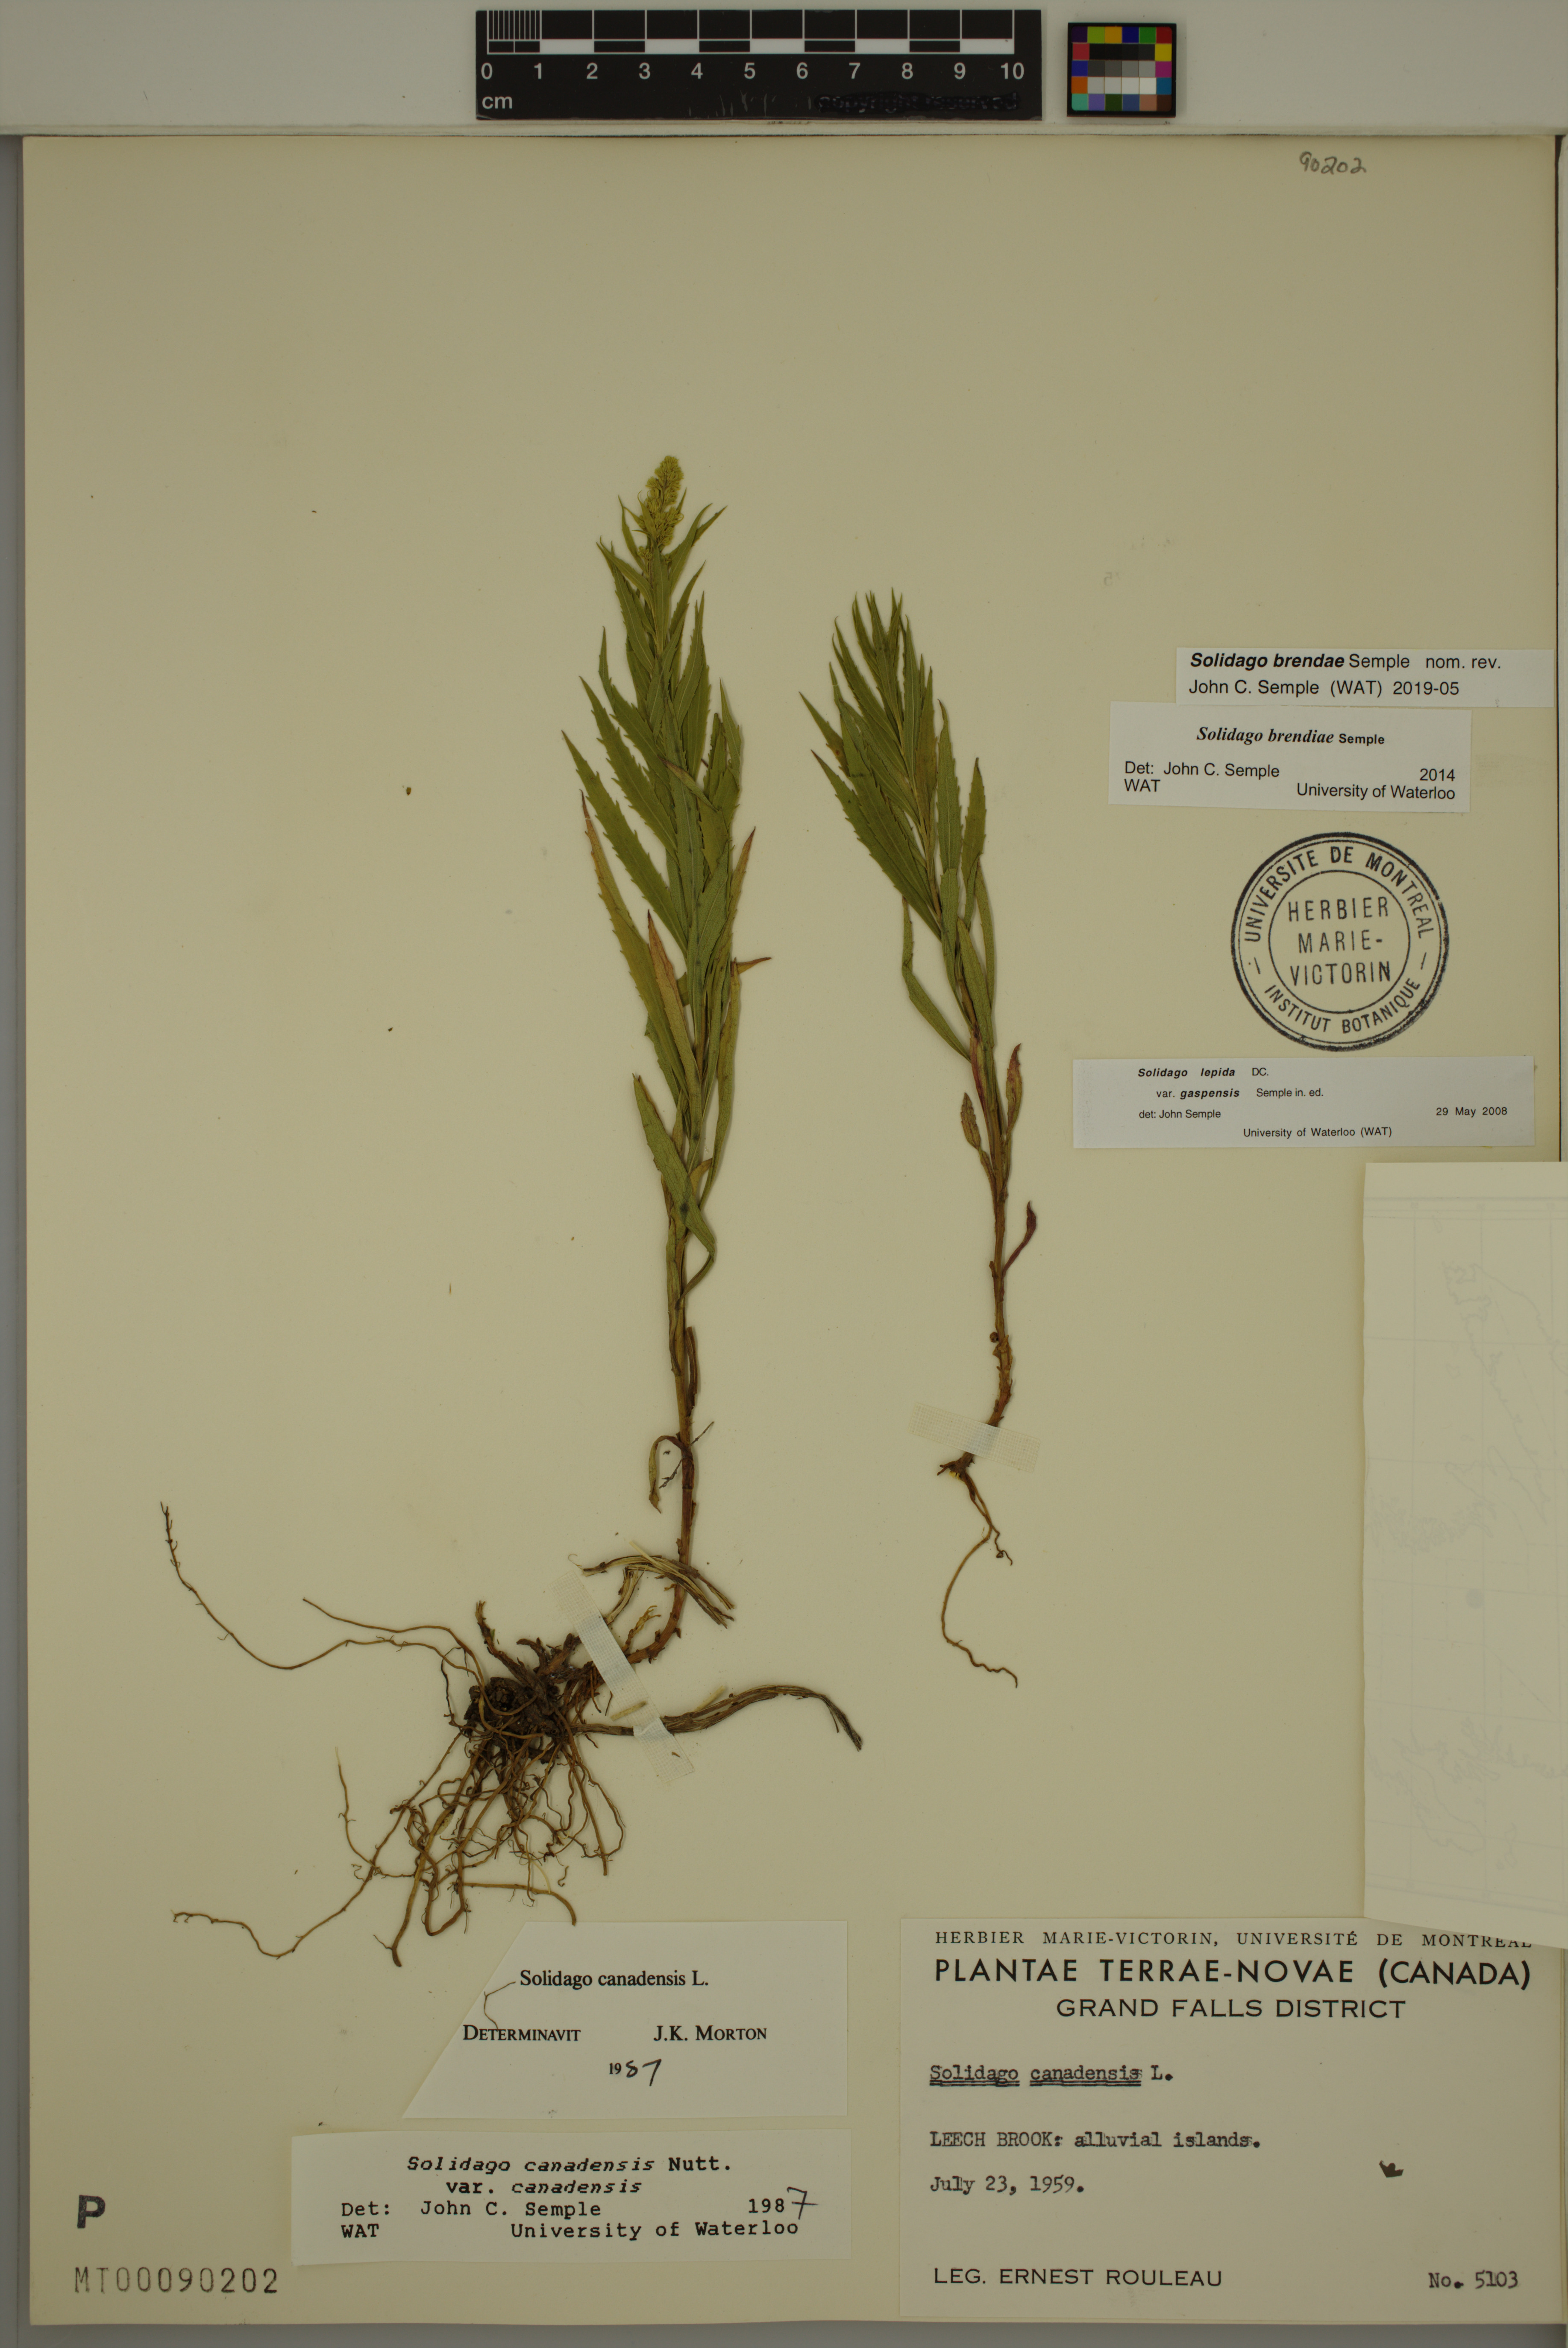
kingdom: Plantae
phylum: Tracheophyta
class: Magnoliopsida
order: Asterales
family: Asteraceae
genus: Solidago
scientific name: Solidago brendae
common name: Brenda's goldenrod
